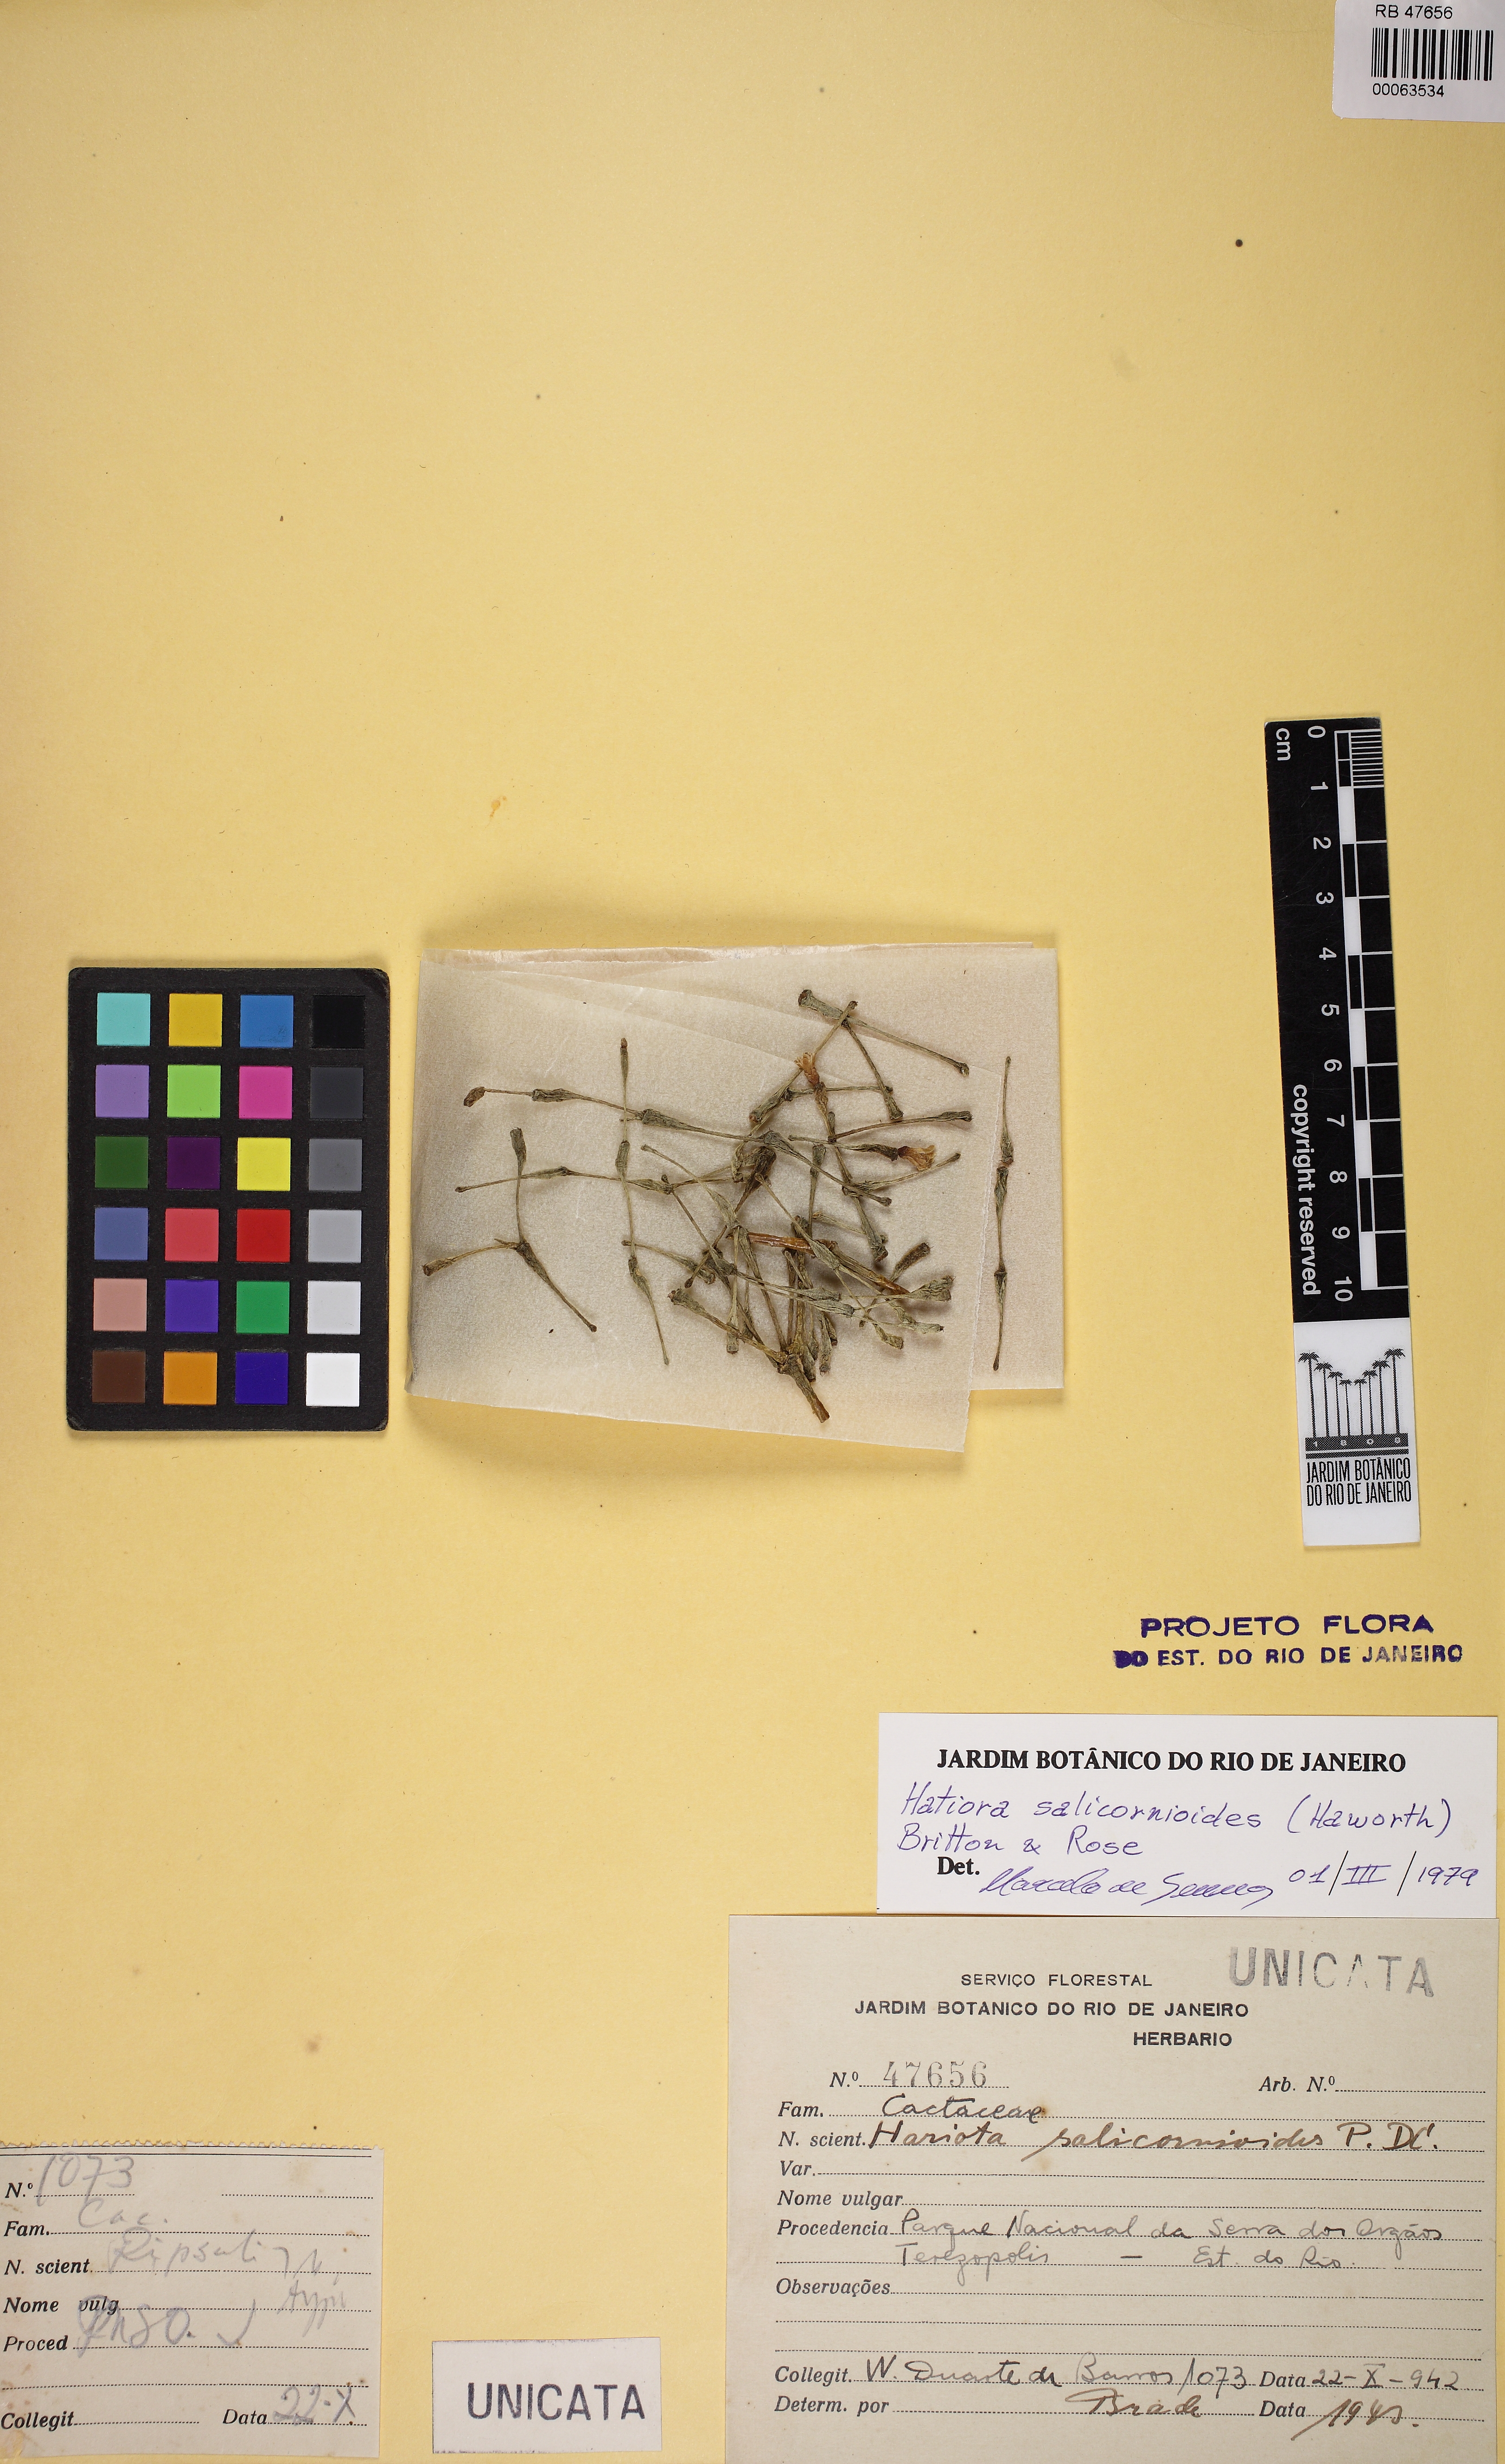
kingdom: Plantae
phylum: Tracheophyta
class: Magnoliopsida
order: Caryophyllales
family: Cactaceae
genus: Hatiora
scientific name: Hatiora salicornioides
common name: Dancing-bones
